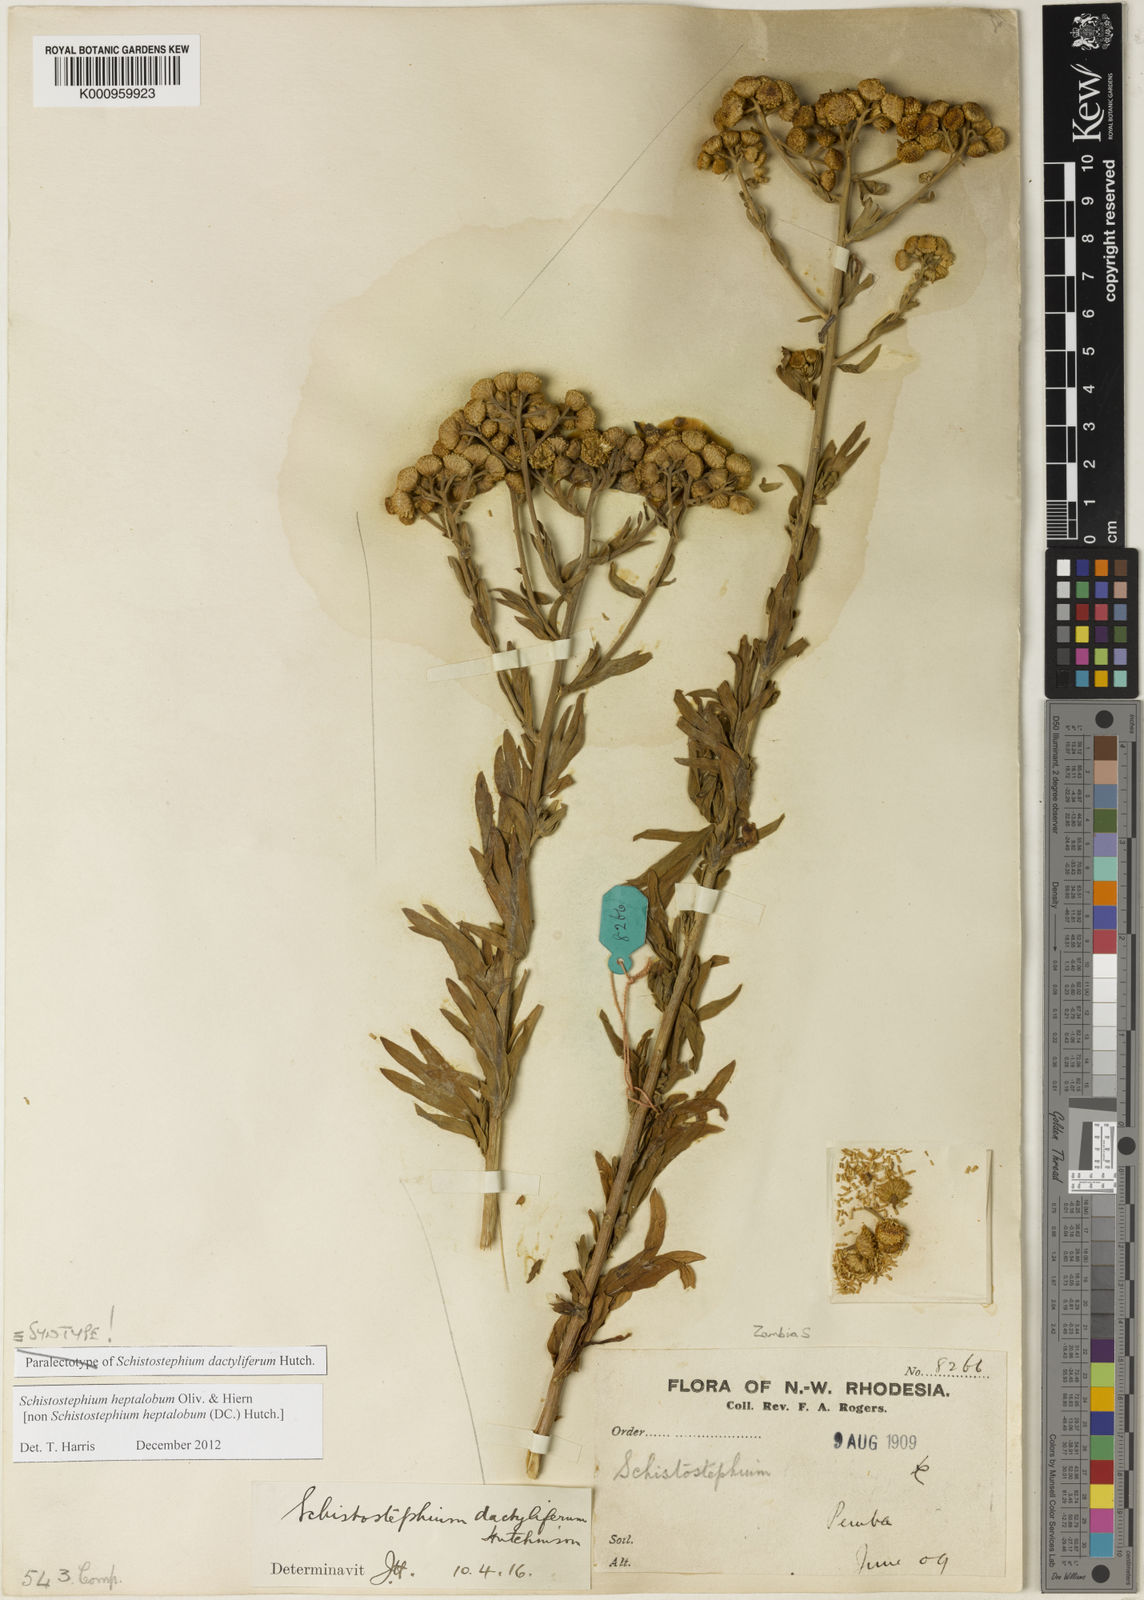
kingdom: Plantae
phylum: Tracheophyta
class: Magnoliopsida
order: Asterales
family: Asteraceae
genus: Schistostephium
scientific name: Schistostephium heptalobum
